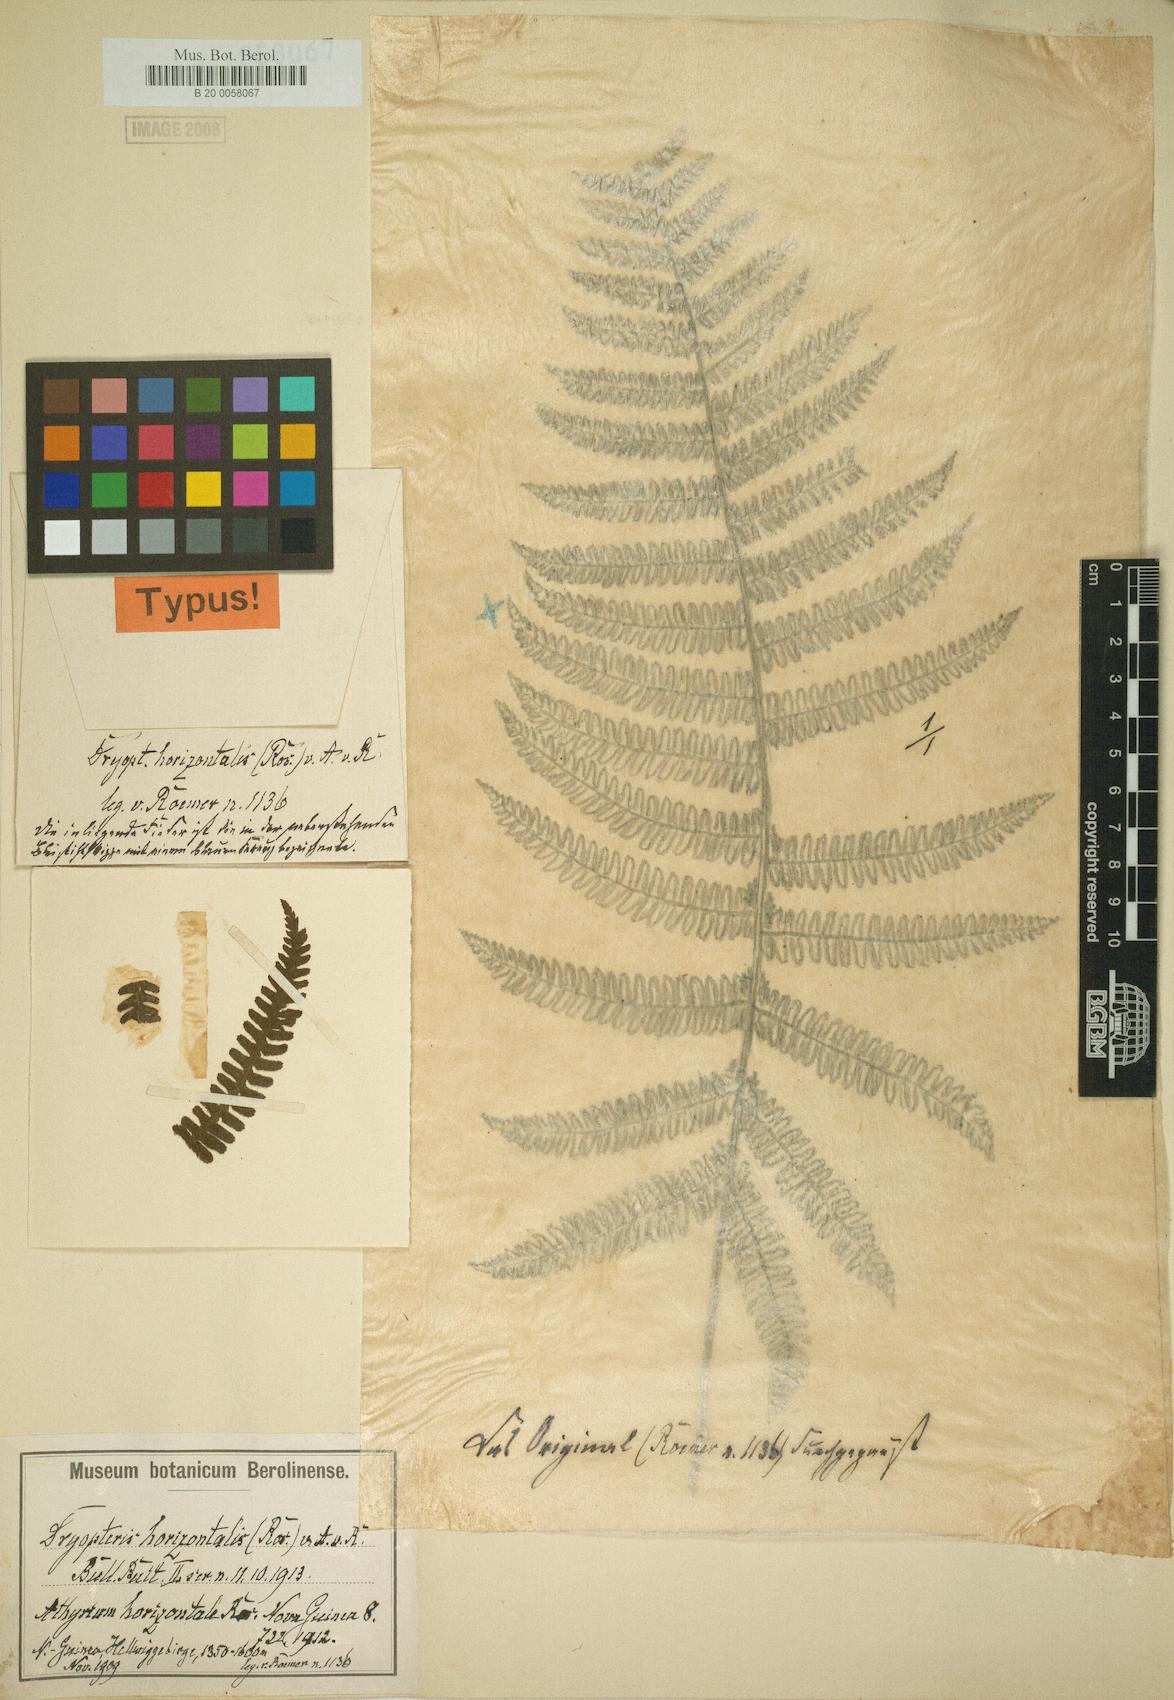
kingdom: Plantae
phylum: Tracheophyta
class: Polypodiopsida
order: Polypodiales
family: Thelypteridaceae
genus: Coryphopteris
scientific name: Coryphopteris horizontalis
